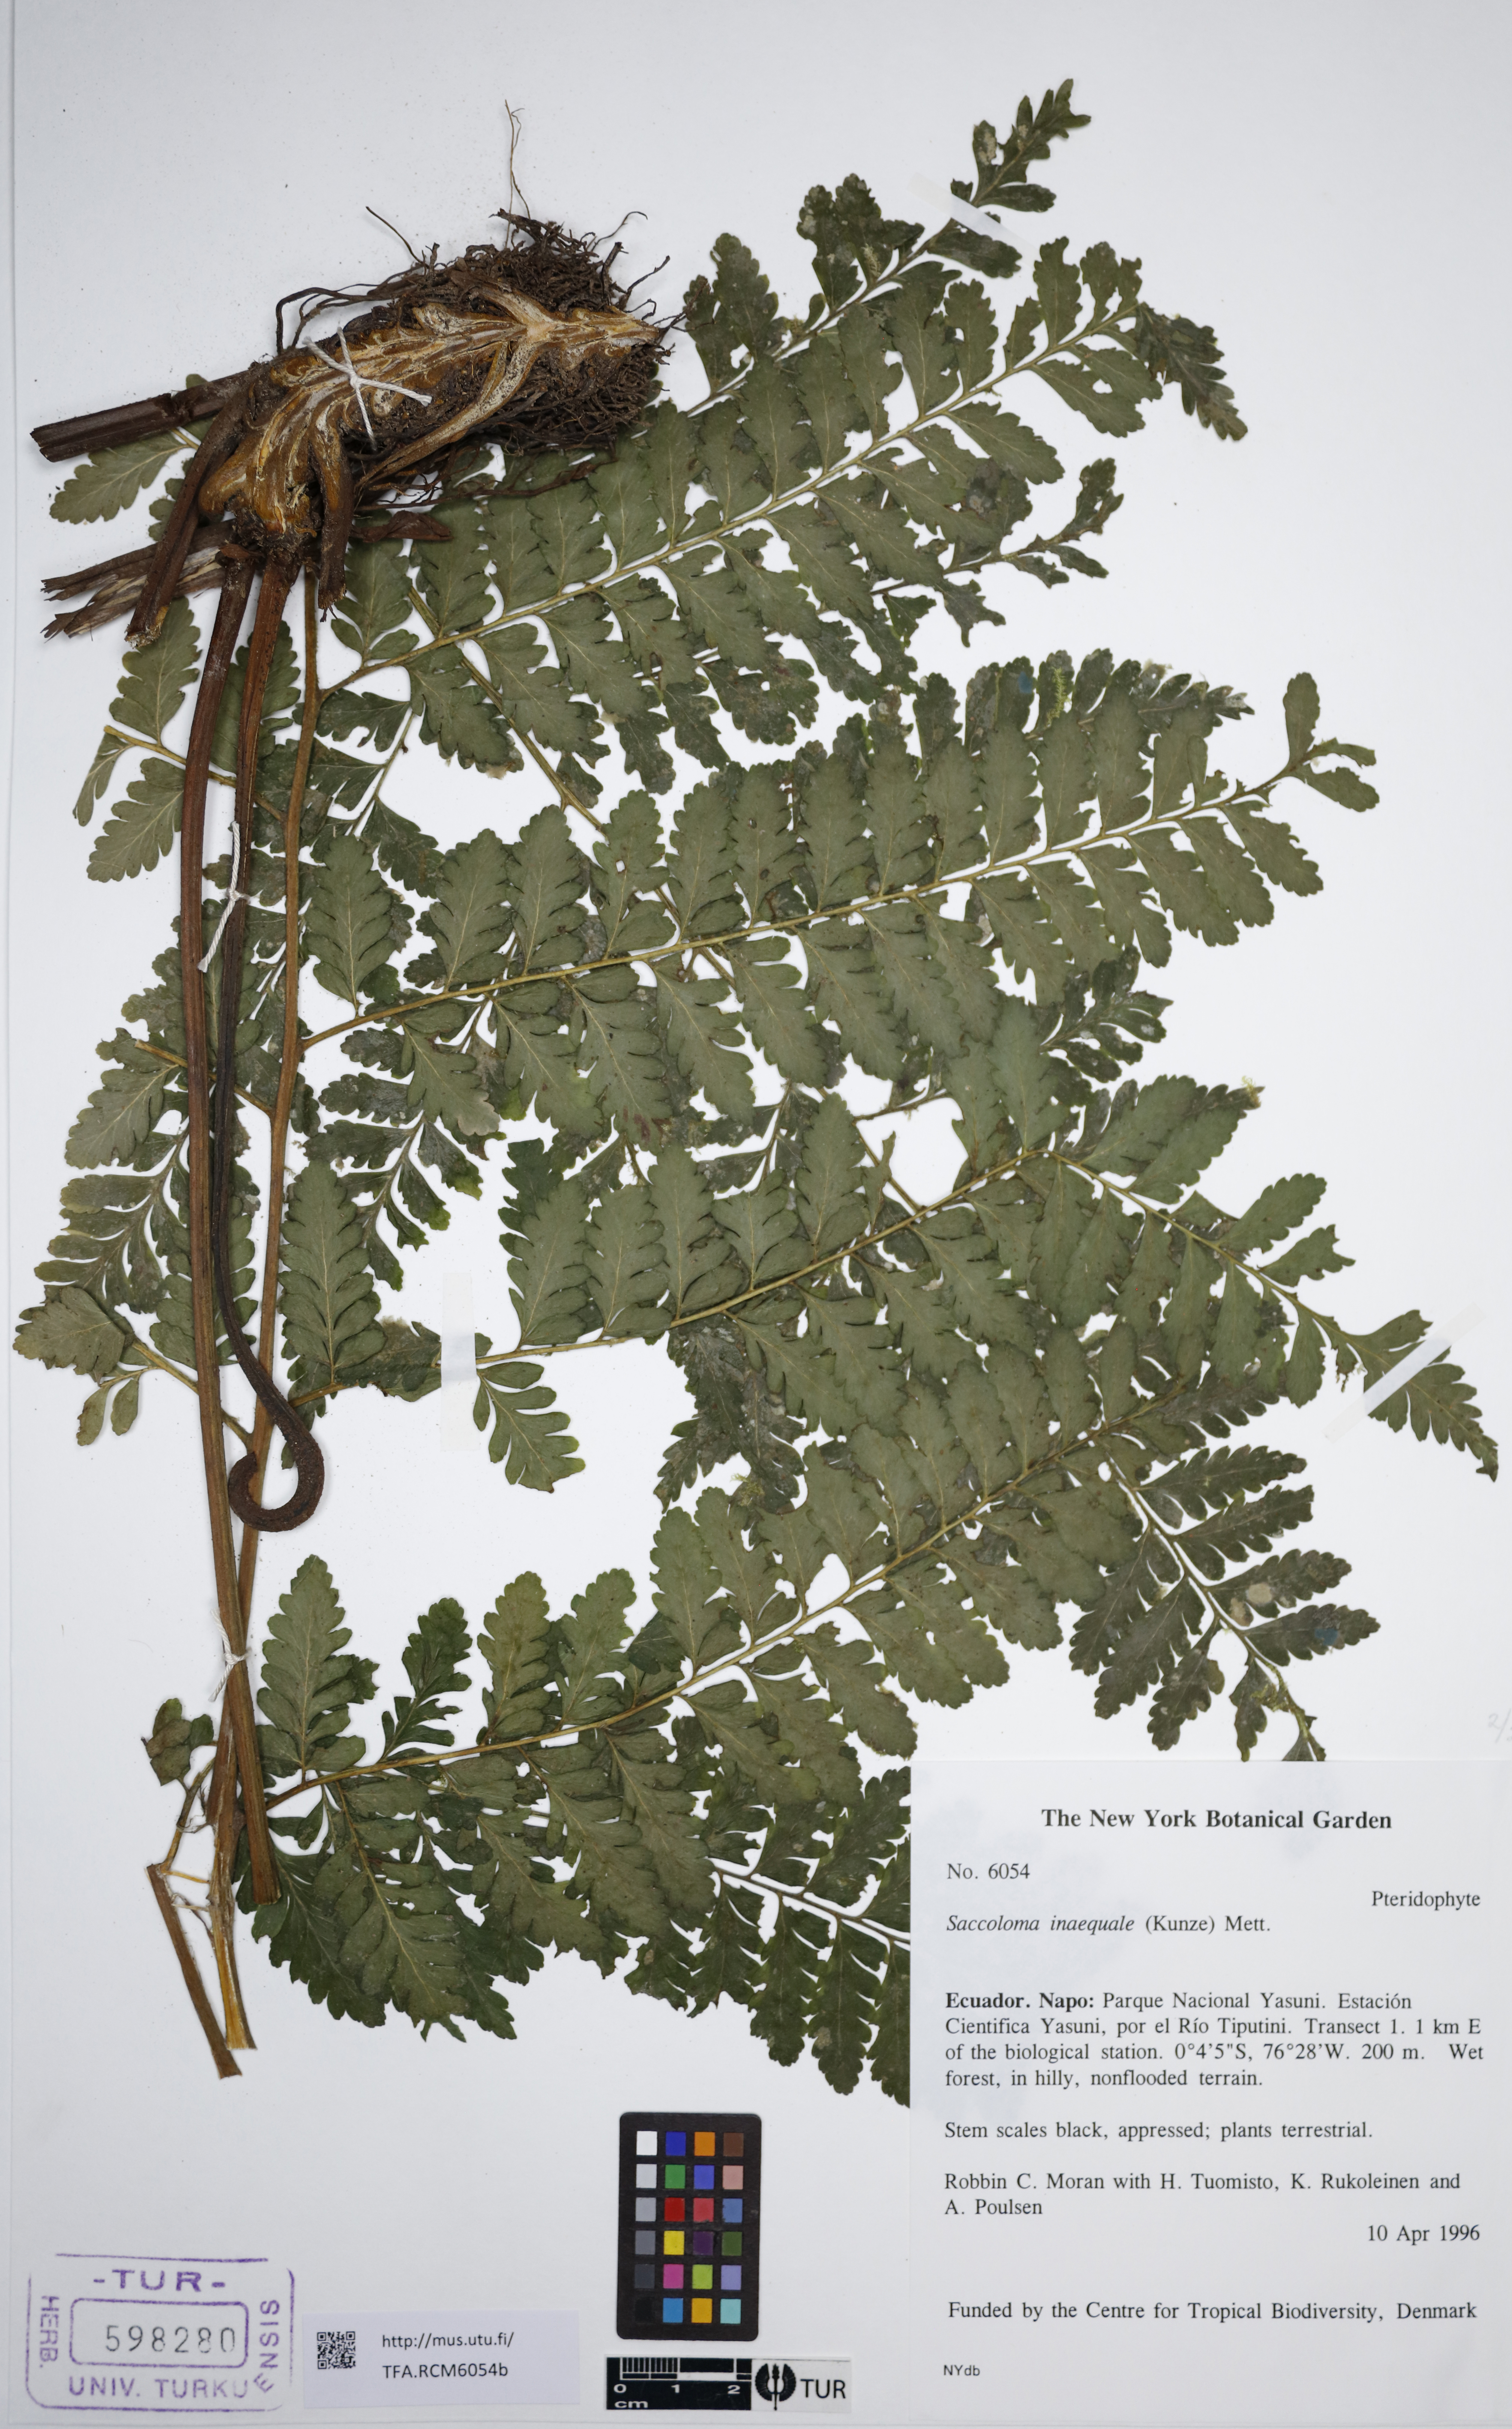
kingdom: Plantae
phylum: Tracheophyta
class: Polypodiopsida
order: Polypodiales
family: Saccolomataceae
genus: Saccoloma
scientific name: Saccoloma inaequale
